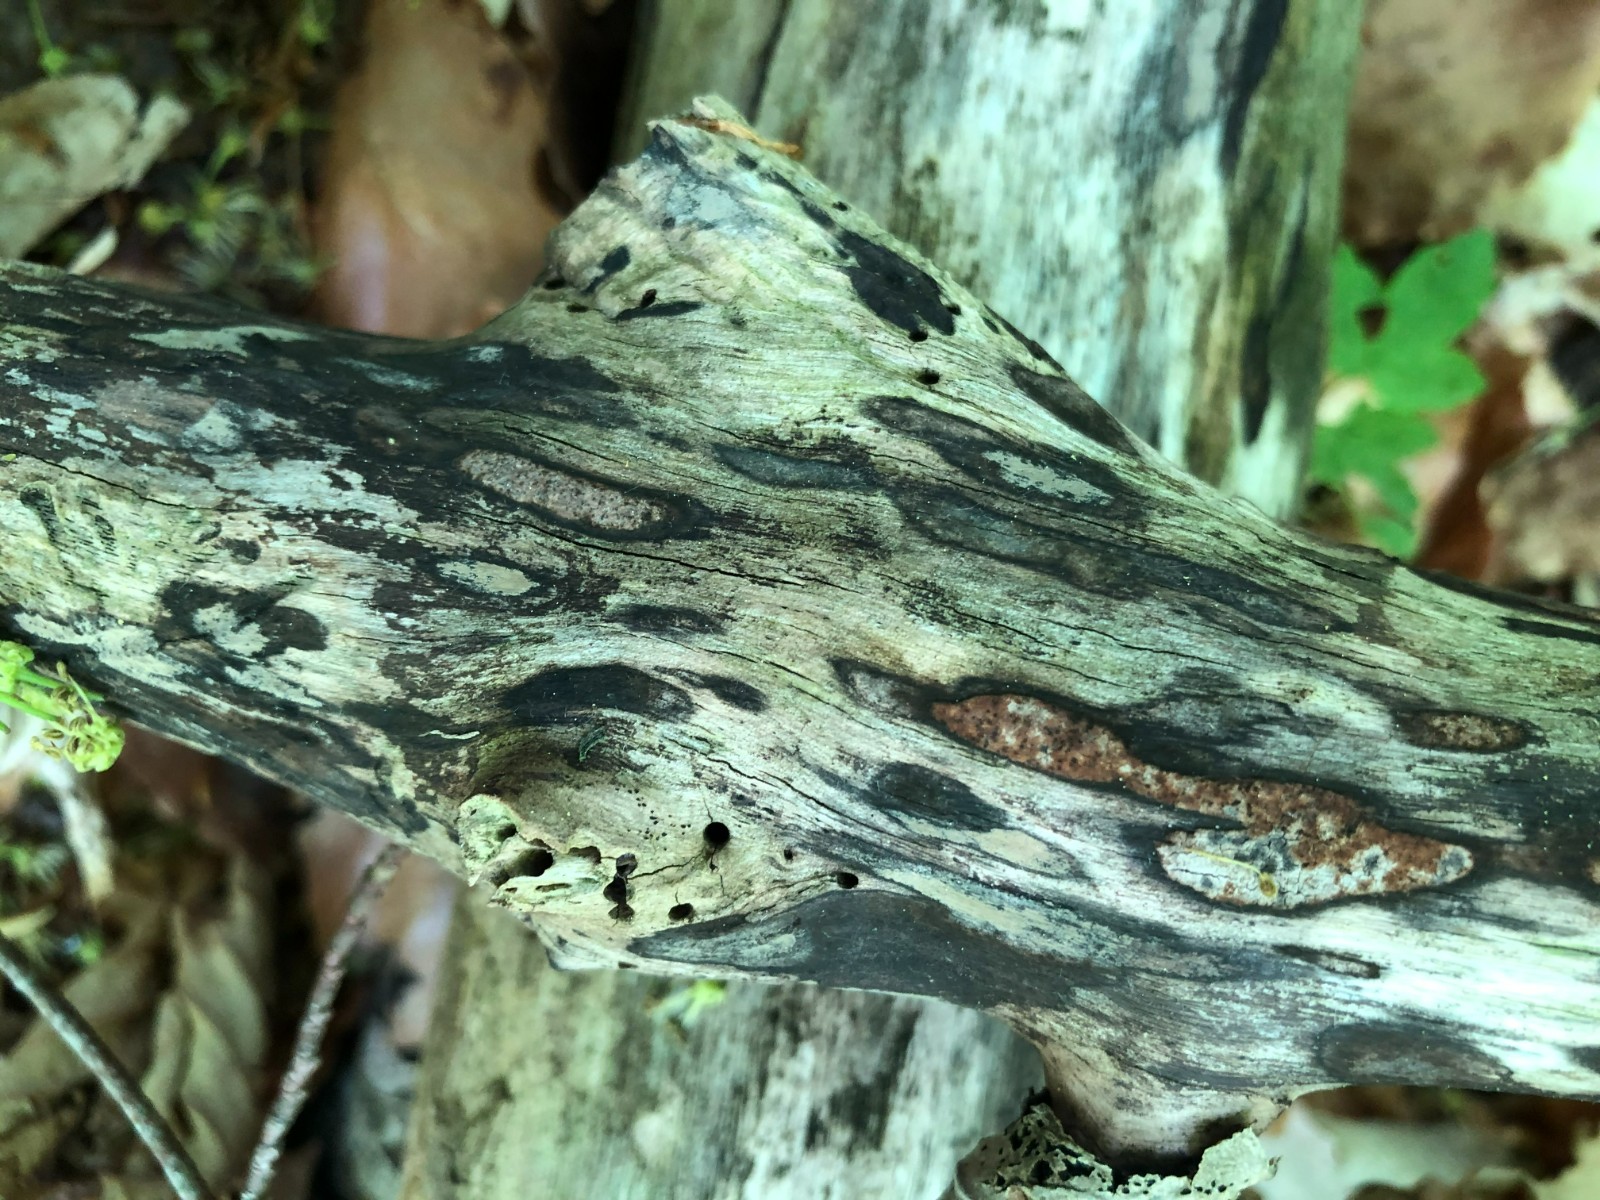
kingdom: Fungi
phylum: Ascomycota
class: Sordariomycetes
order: Xylariales
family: Hypoxylaceae
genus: Hypoxylon
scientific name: Hypoxylon petriniae
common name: nedsænket kulbær
